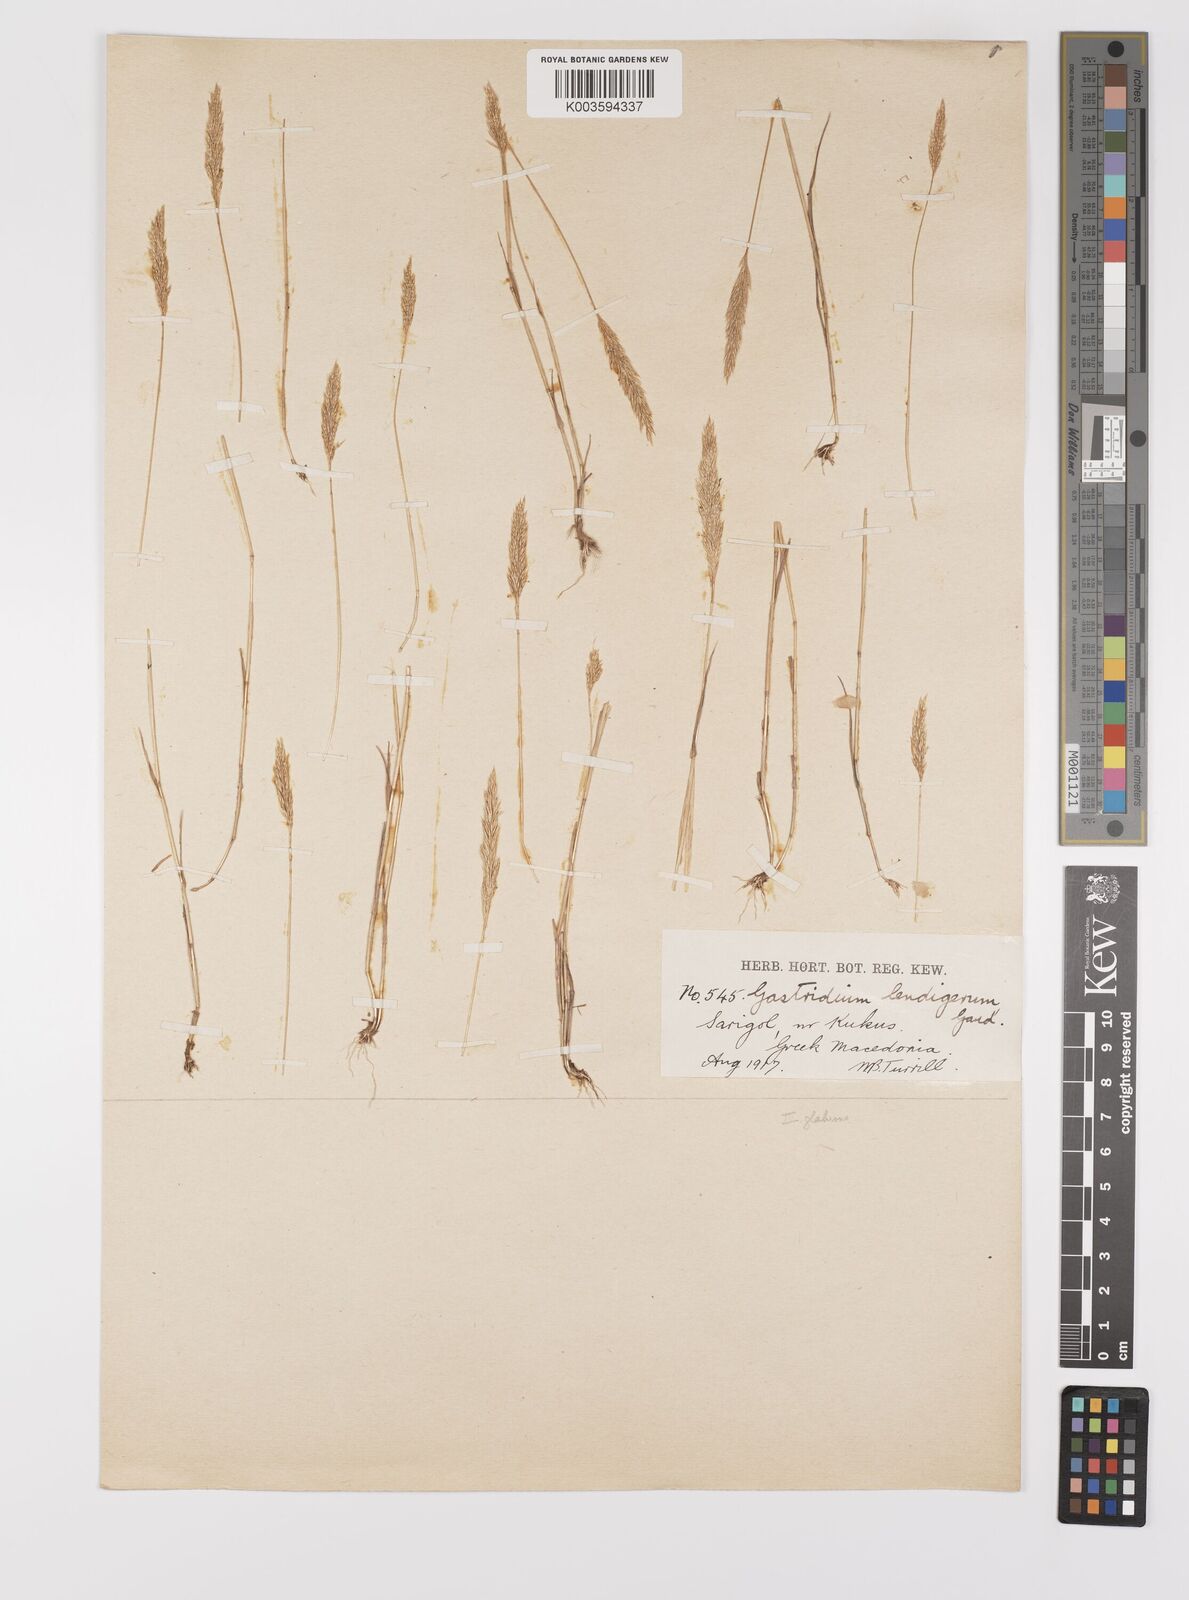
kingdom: Plantae
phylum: Tracheophyta
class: Liliopsida
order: Poales
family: Poaceae
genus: Gastridium
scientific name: Gastridium ventricosum
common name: Nit-grass
